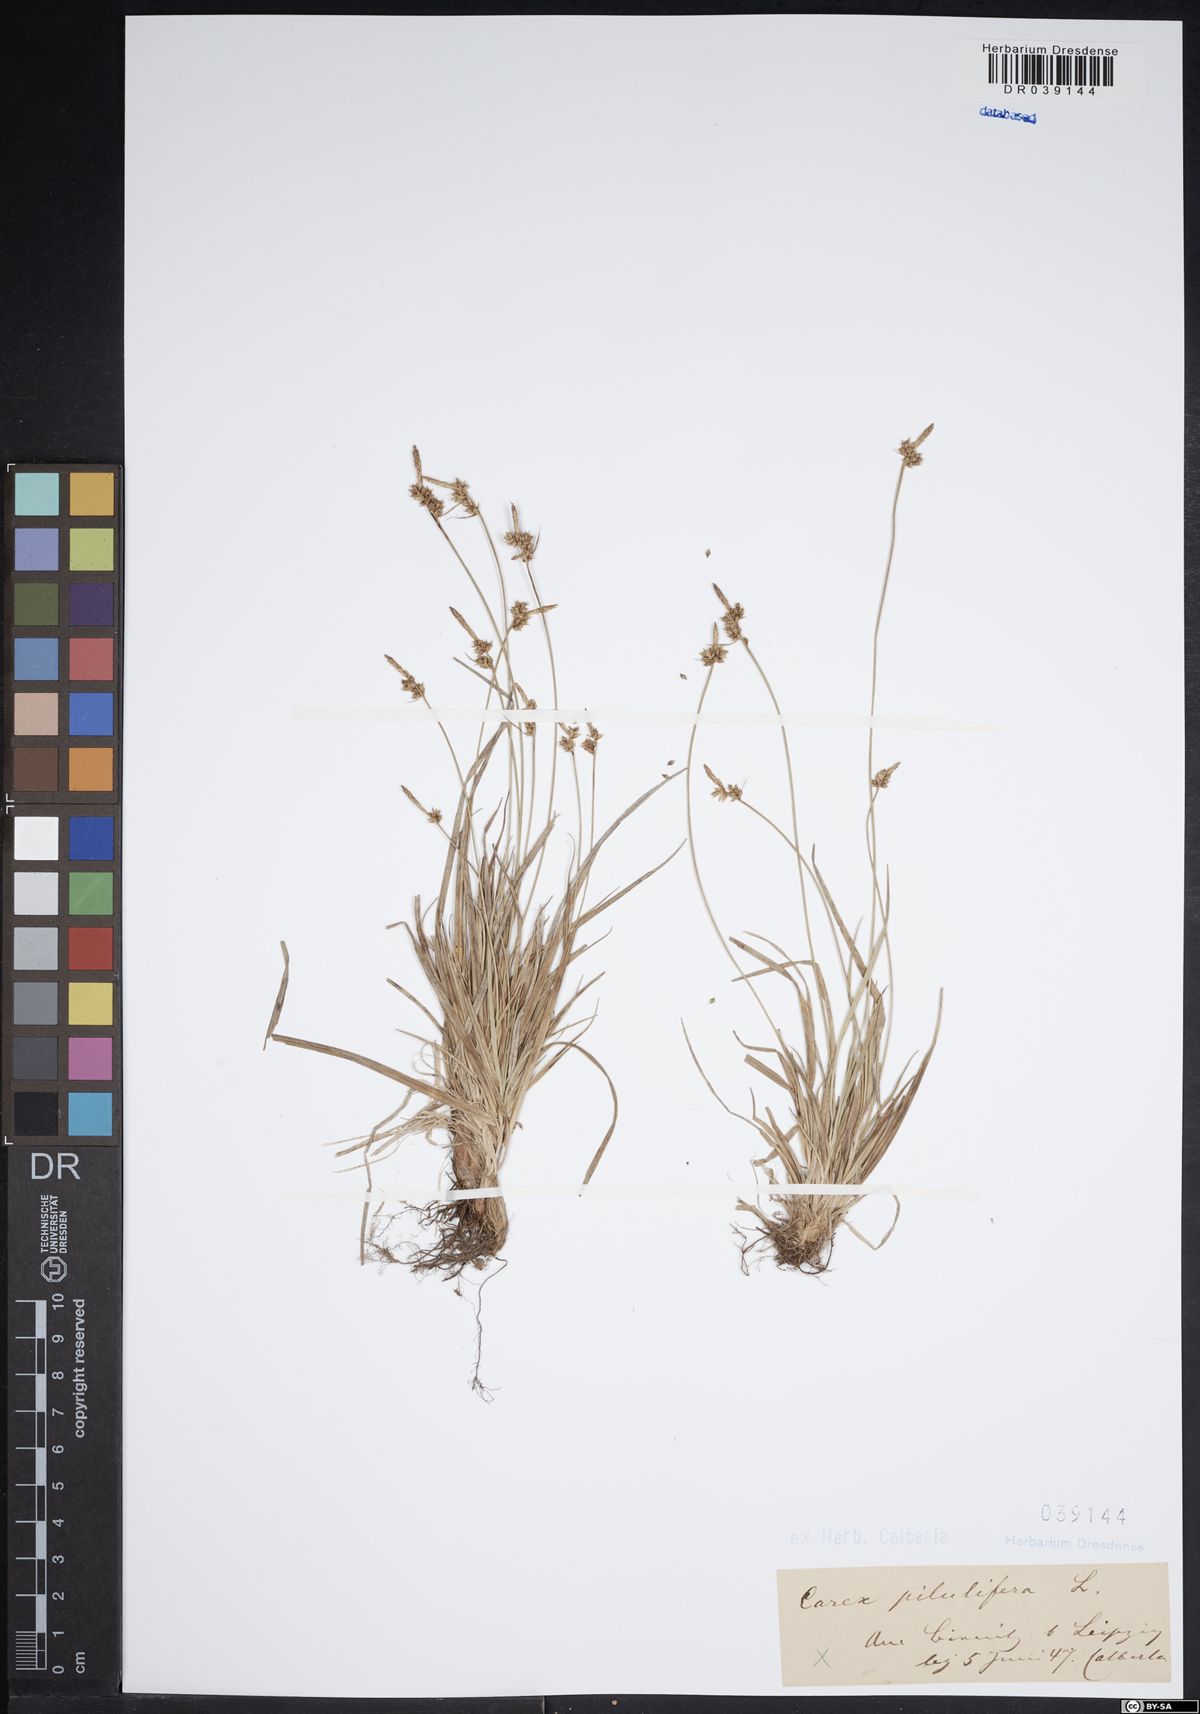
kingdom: Plantae
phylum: Tracheophyta
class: Liliopsida
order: Poales
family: Cyperaceae
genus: Carex
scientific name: Carex pilulifera
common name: Pill sedge
